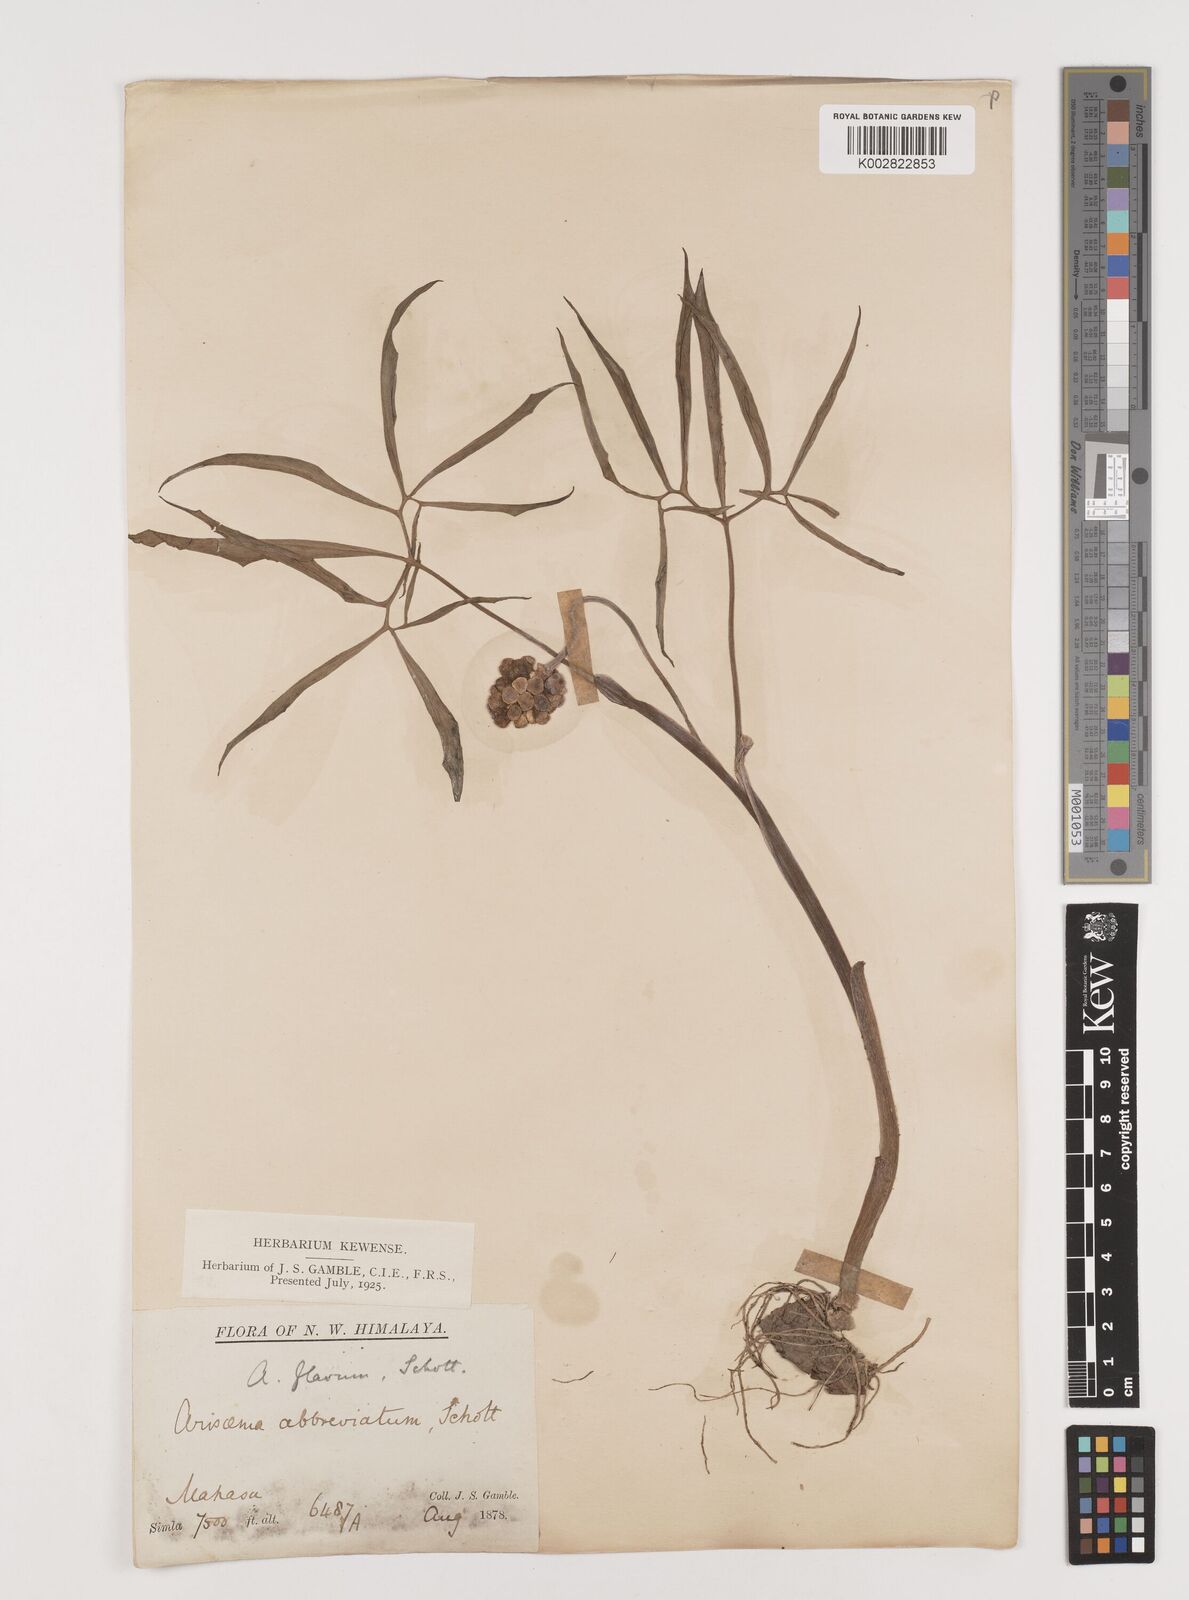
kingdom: Plantae
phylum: Tracheophyta
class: Liliopsida
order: Alismatales
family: Araceae
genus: Arisaema
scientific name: Arisaema flavum
